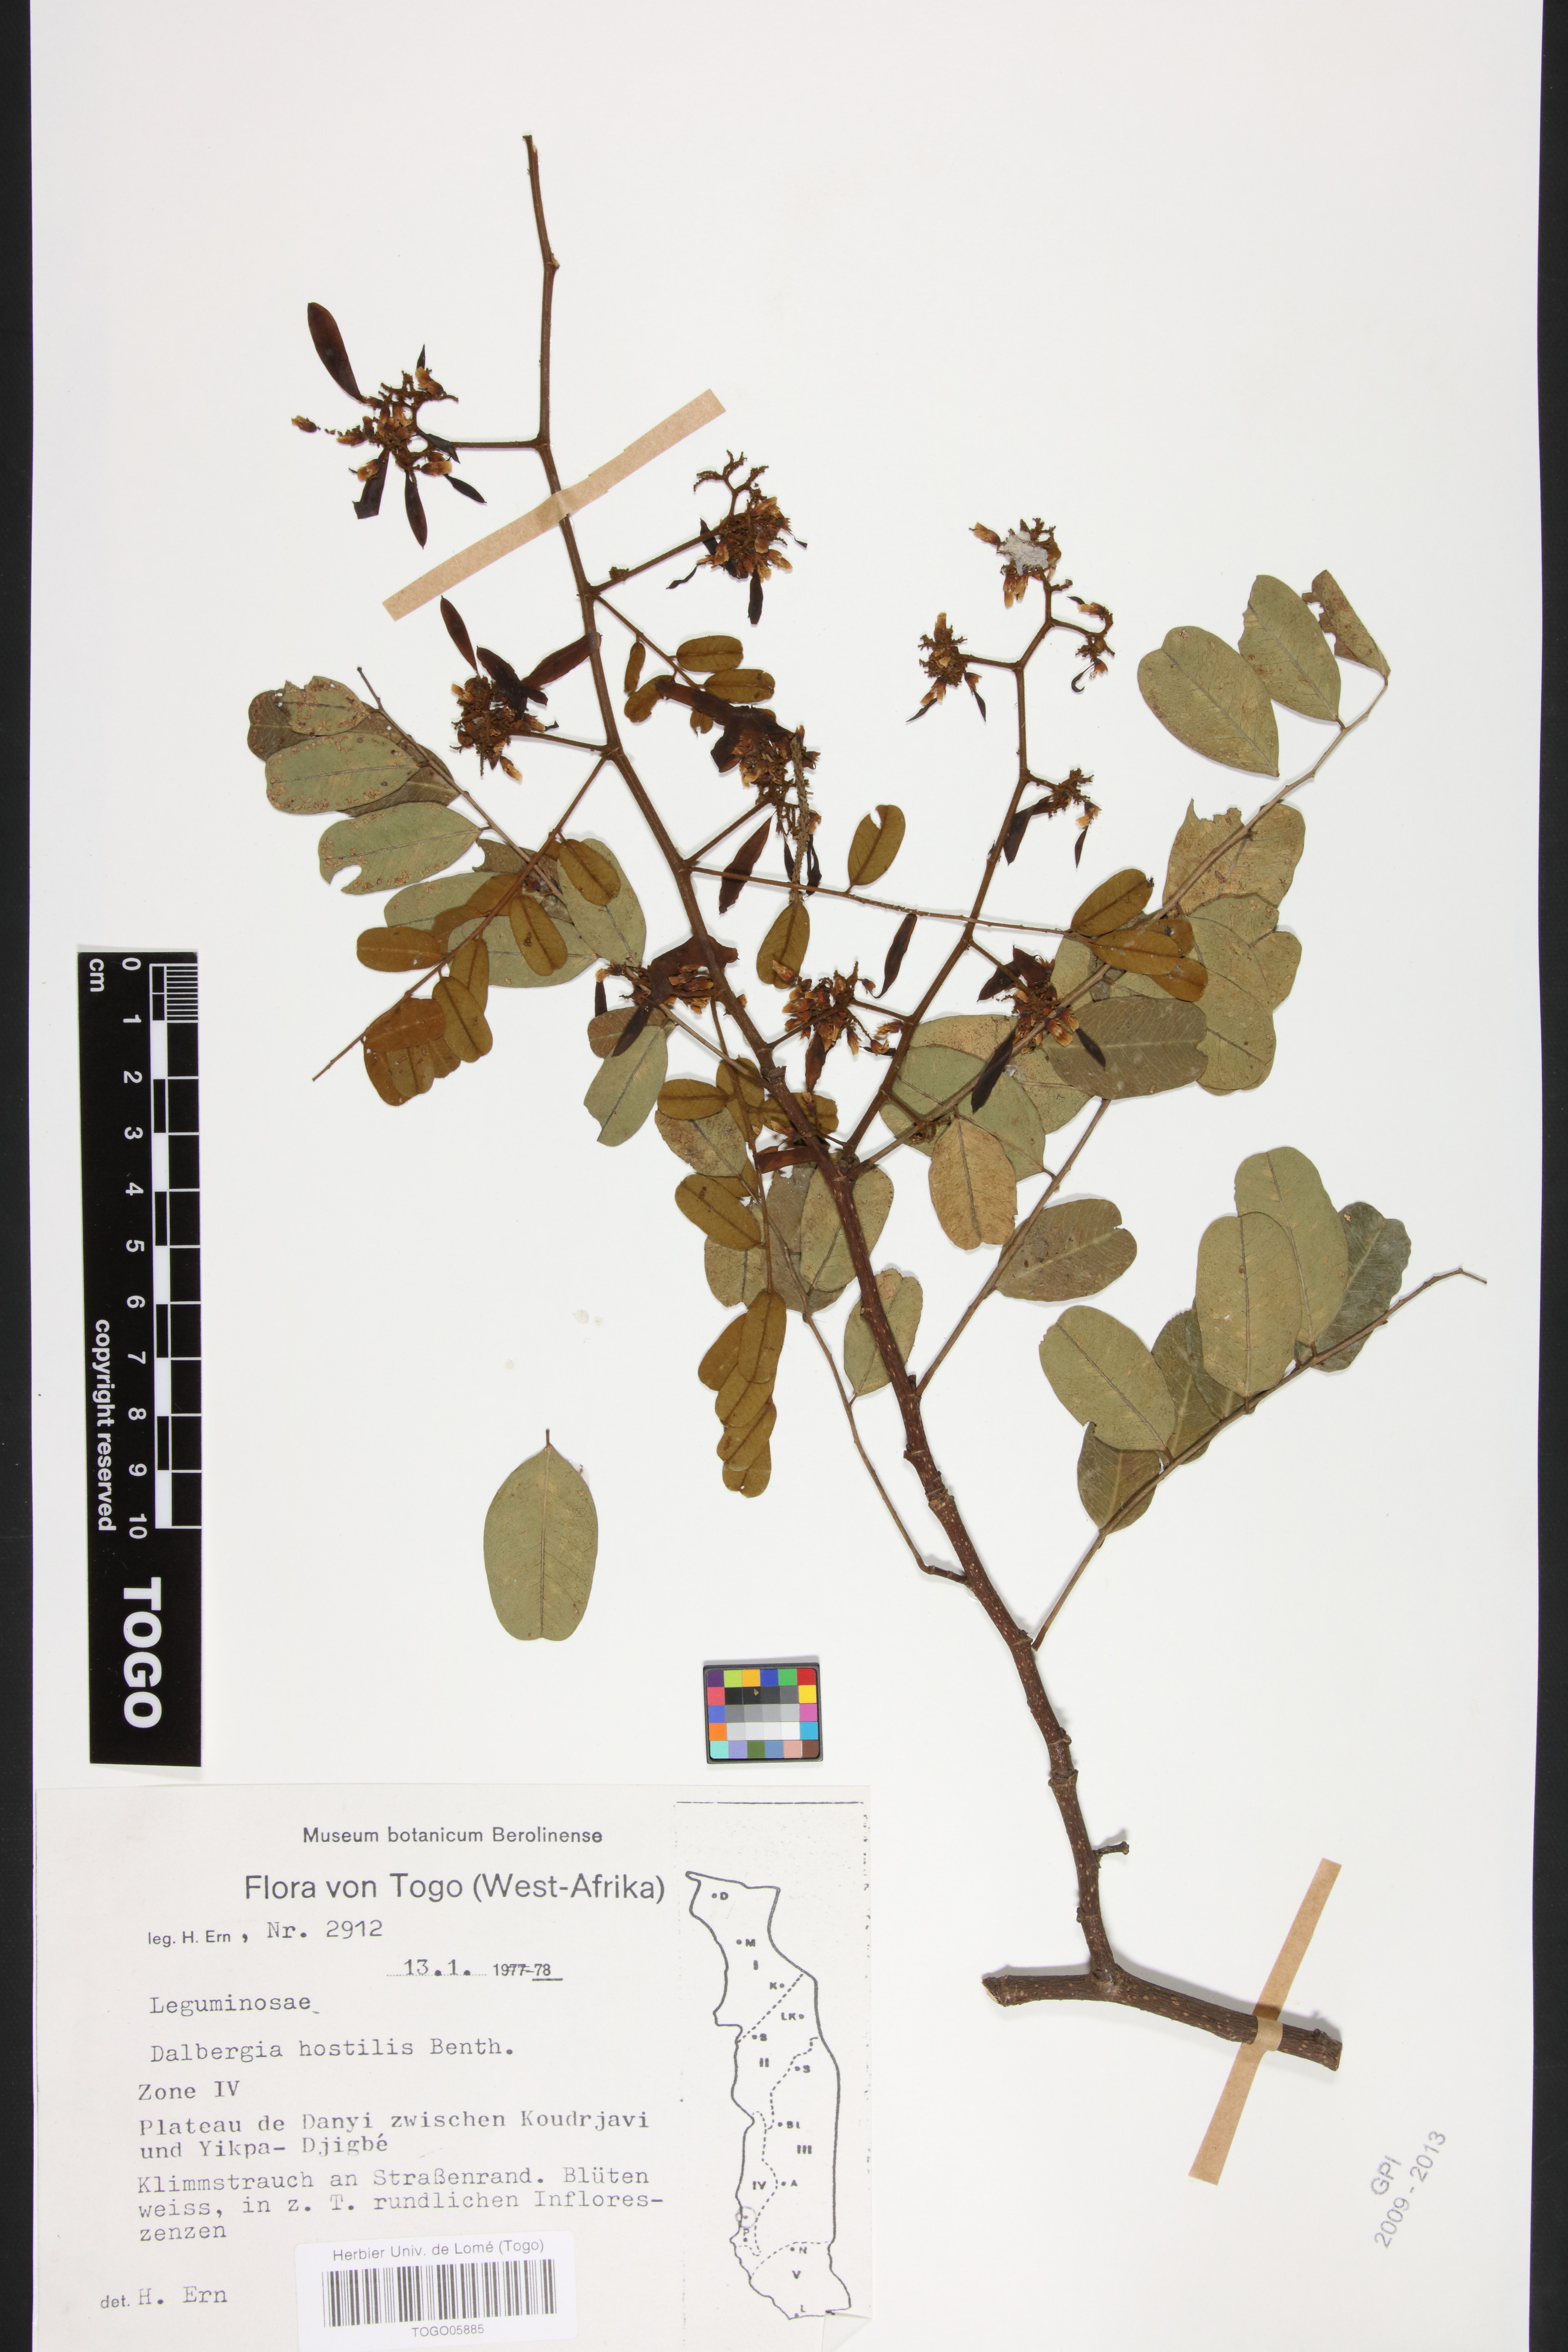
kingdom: Plantae
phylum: Tracheophyta
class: Magnoliopsida
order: Fabales
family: Fabaceae
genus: Dalbergia
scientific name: Dalbergia hostilis
